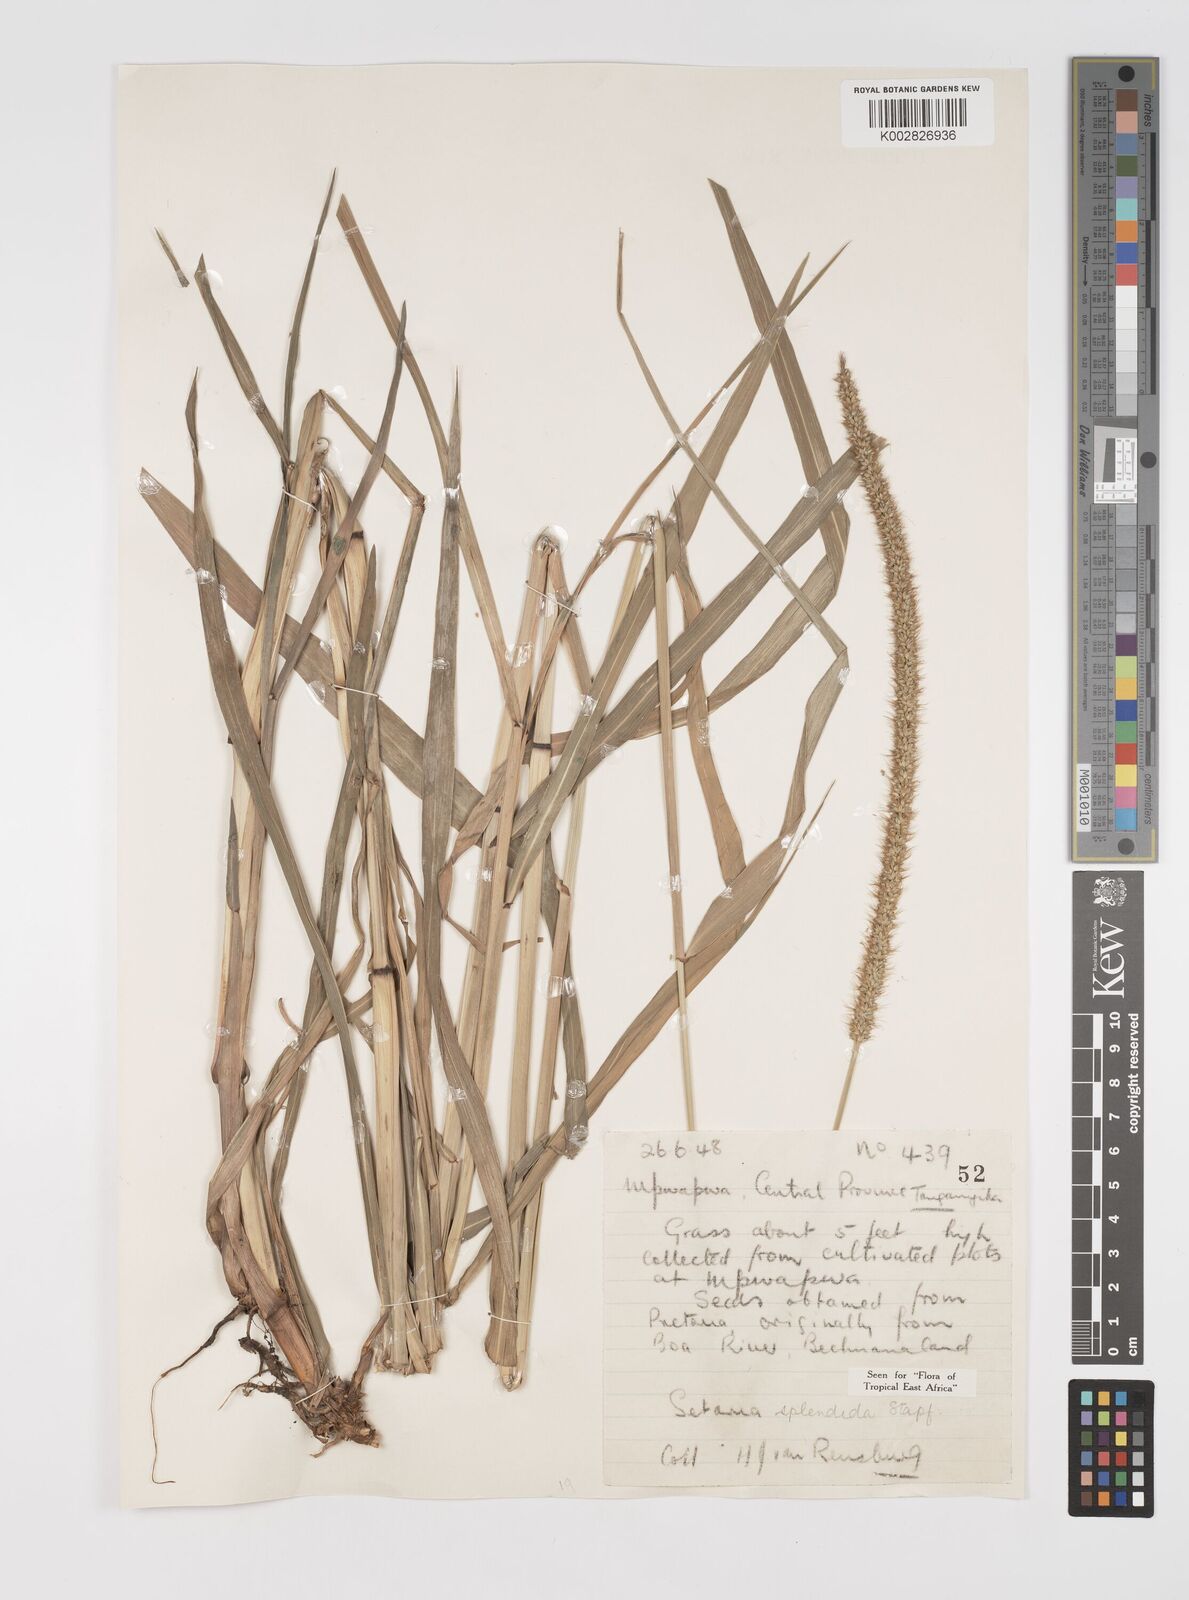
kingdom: Plantae
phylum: Tracheophyta
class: Liliopsida
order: Poales
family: Poaceae
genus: Setaria
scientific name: Setaria sphacelata
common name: African bristlegrass
